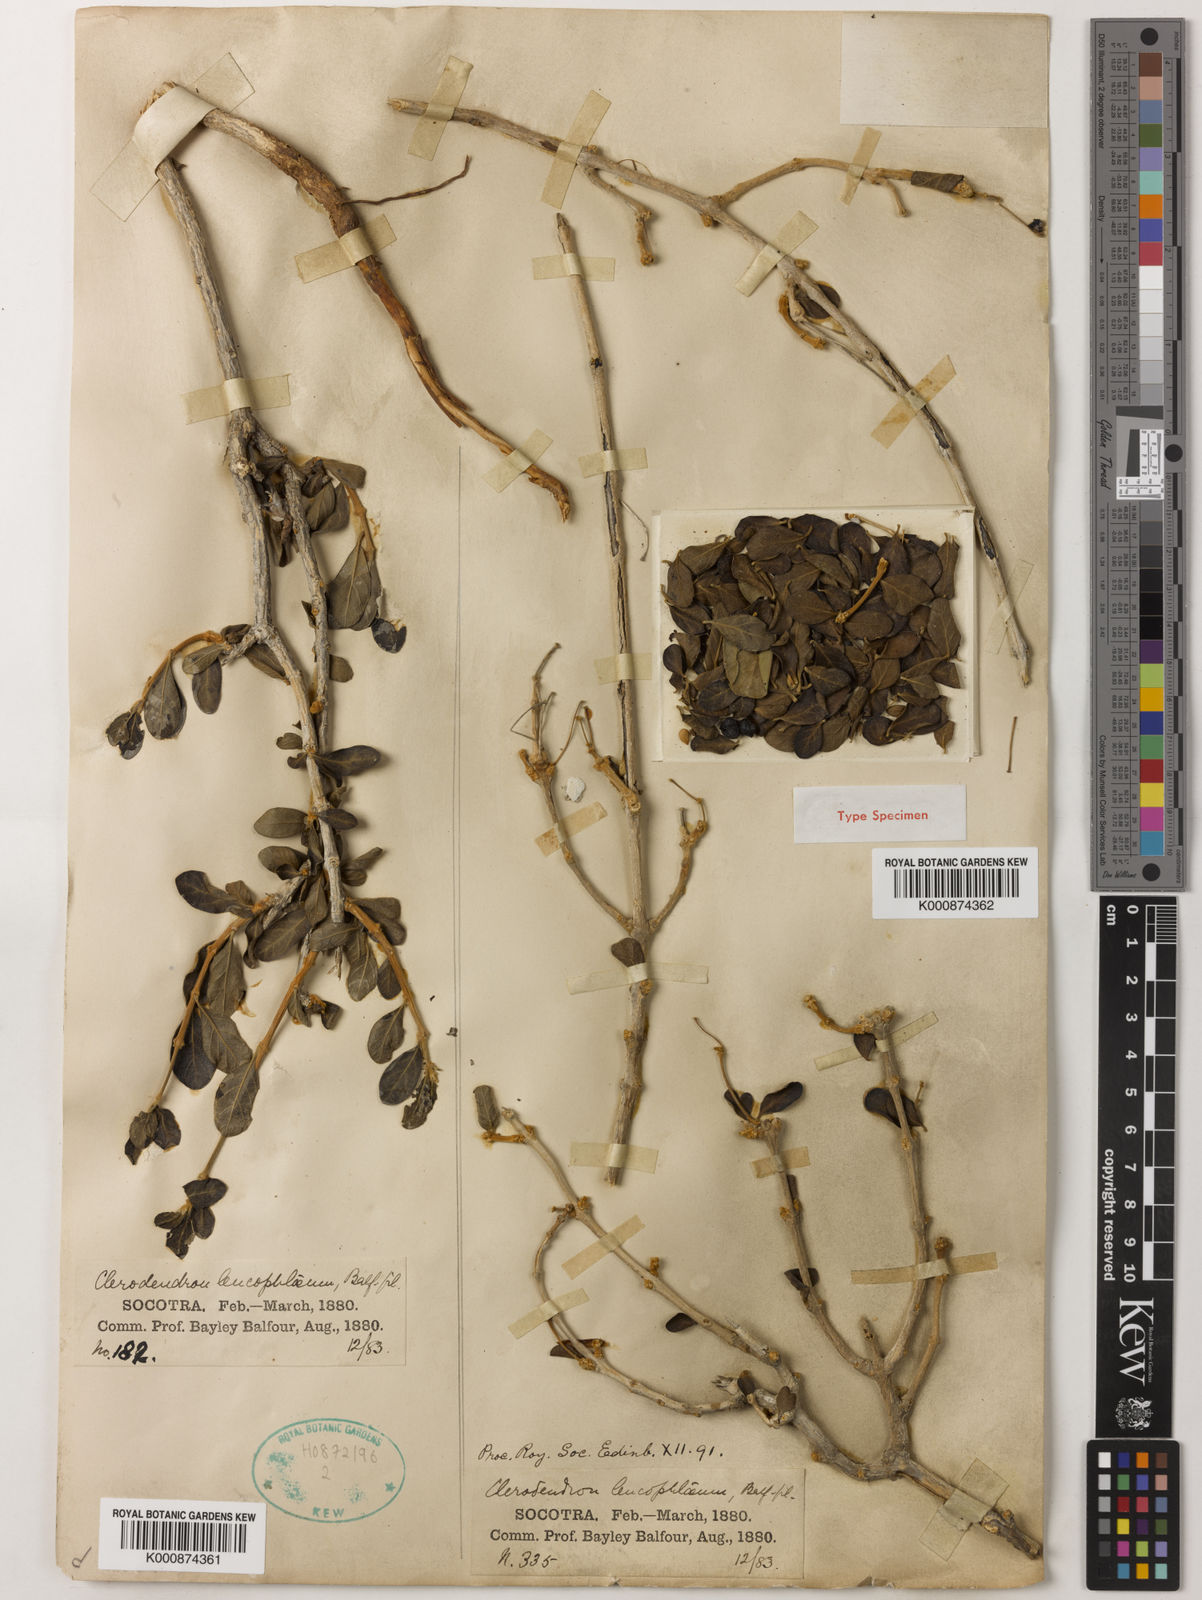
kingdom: Plantae
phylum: Tracheophyta
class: Magnoliopsida
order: Lamiales
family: Lamiaceae
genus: Clerodendrum
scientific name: Clerodendrum leucophloeum
